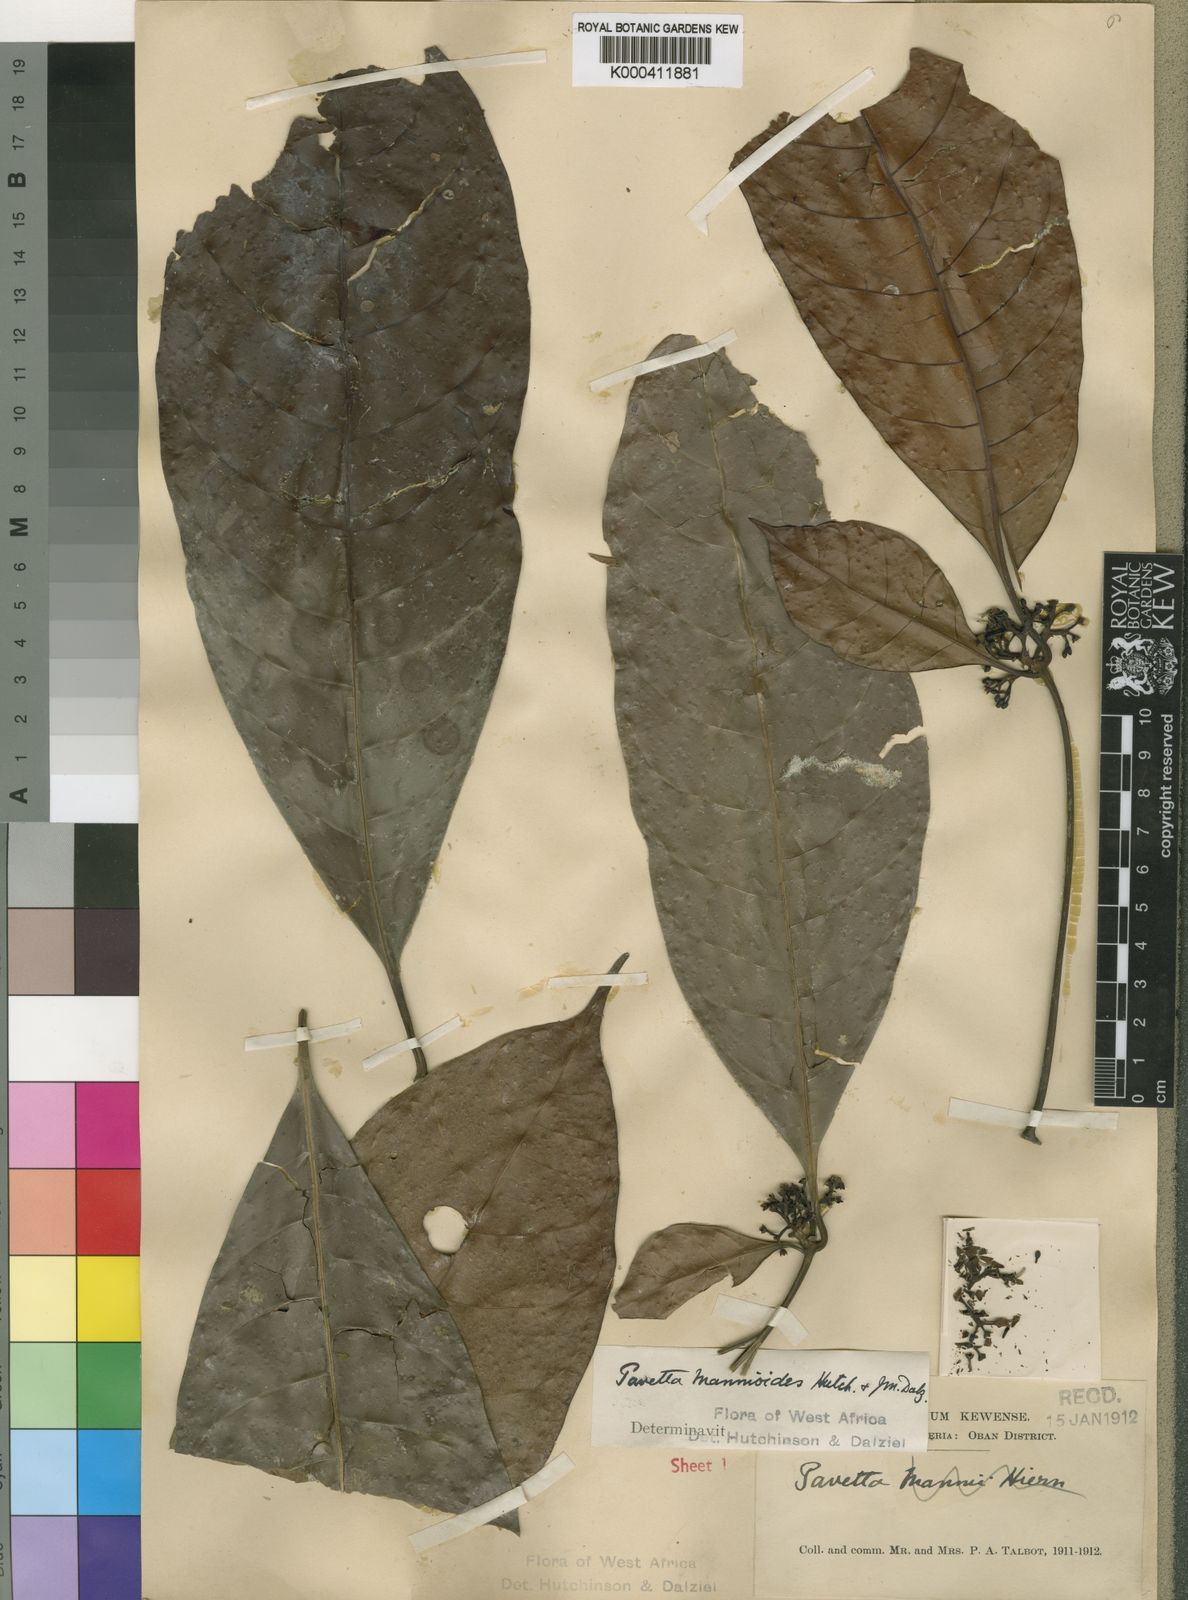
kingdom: Plantae
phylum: Tracheophyta
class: Magnoliopsida
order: Gentianales
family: Rubiaceae
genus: Pavetta
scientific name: Pavetta neurocarpa
